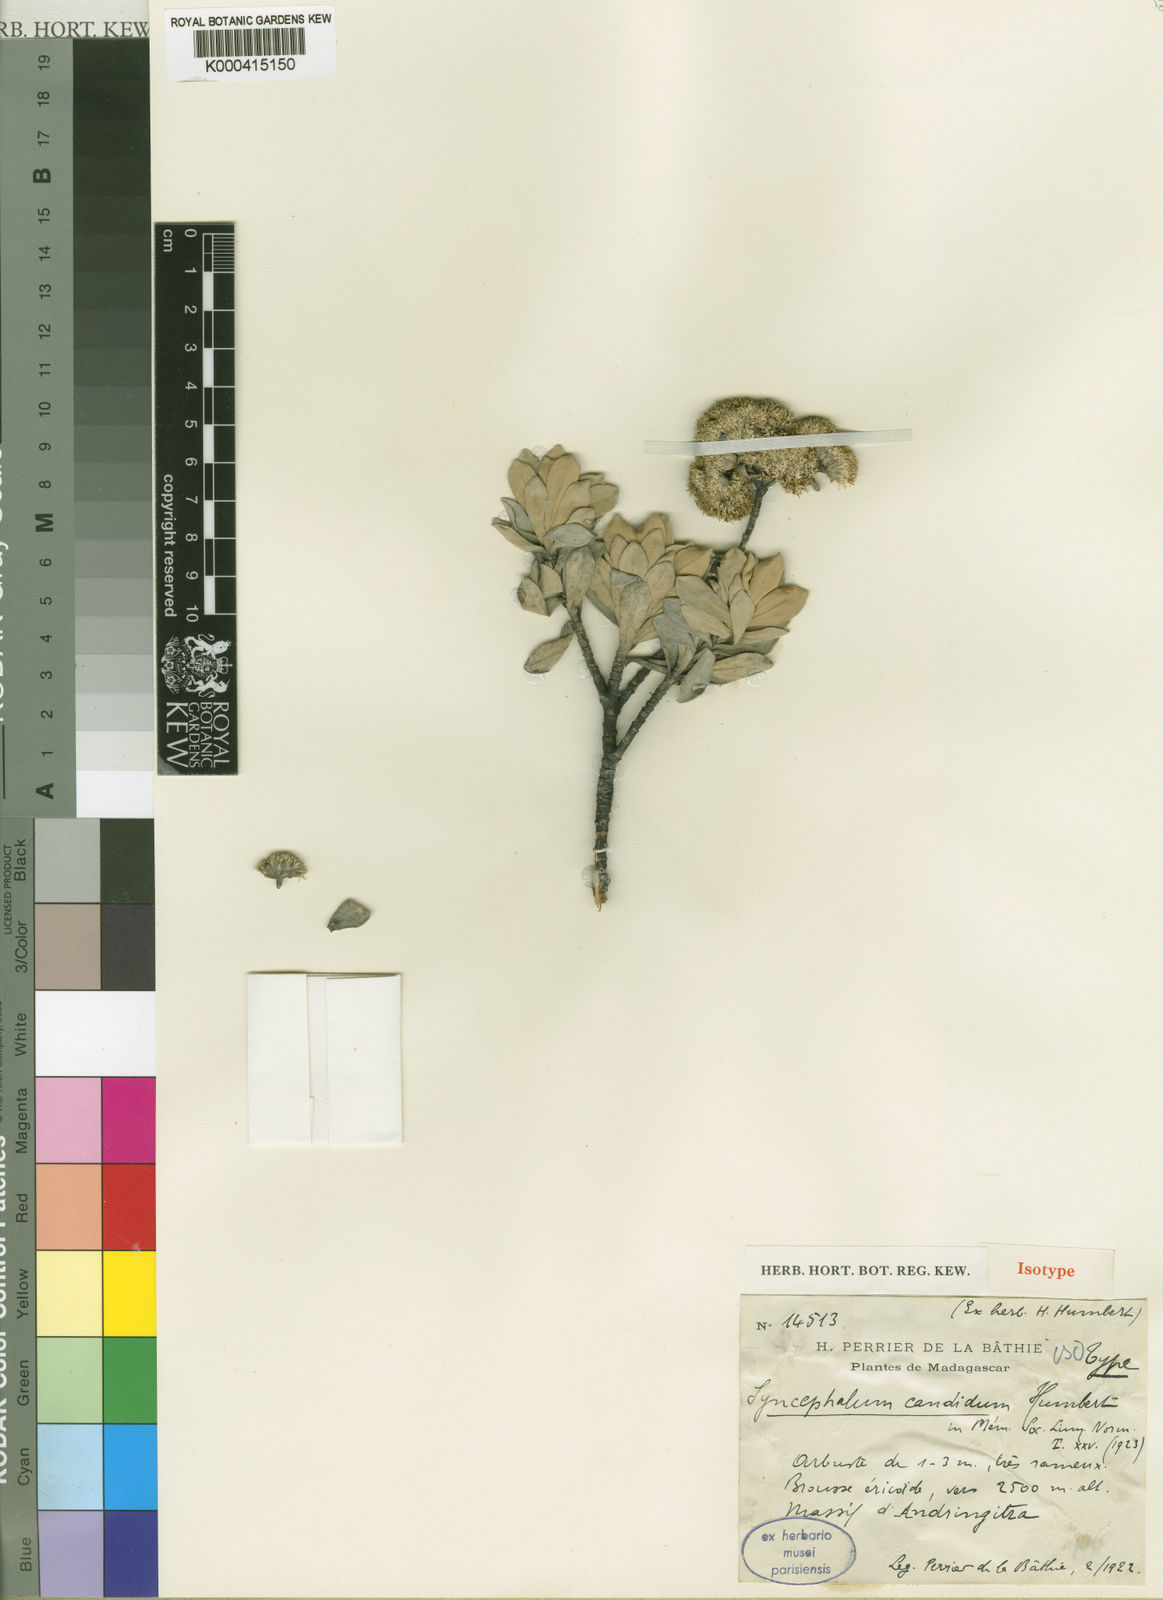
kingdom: Plantae
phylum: Tracheophyta
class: Magnoliopsida
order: Asterales
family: Asteraceae
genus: Syncephalum
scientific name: Syncephalum candidum
